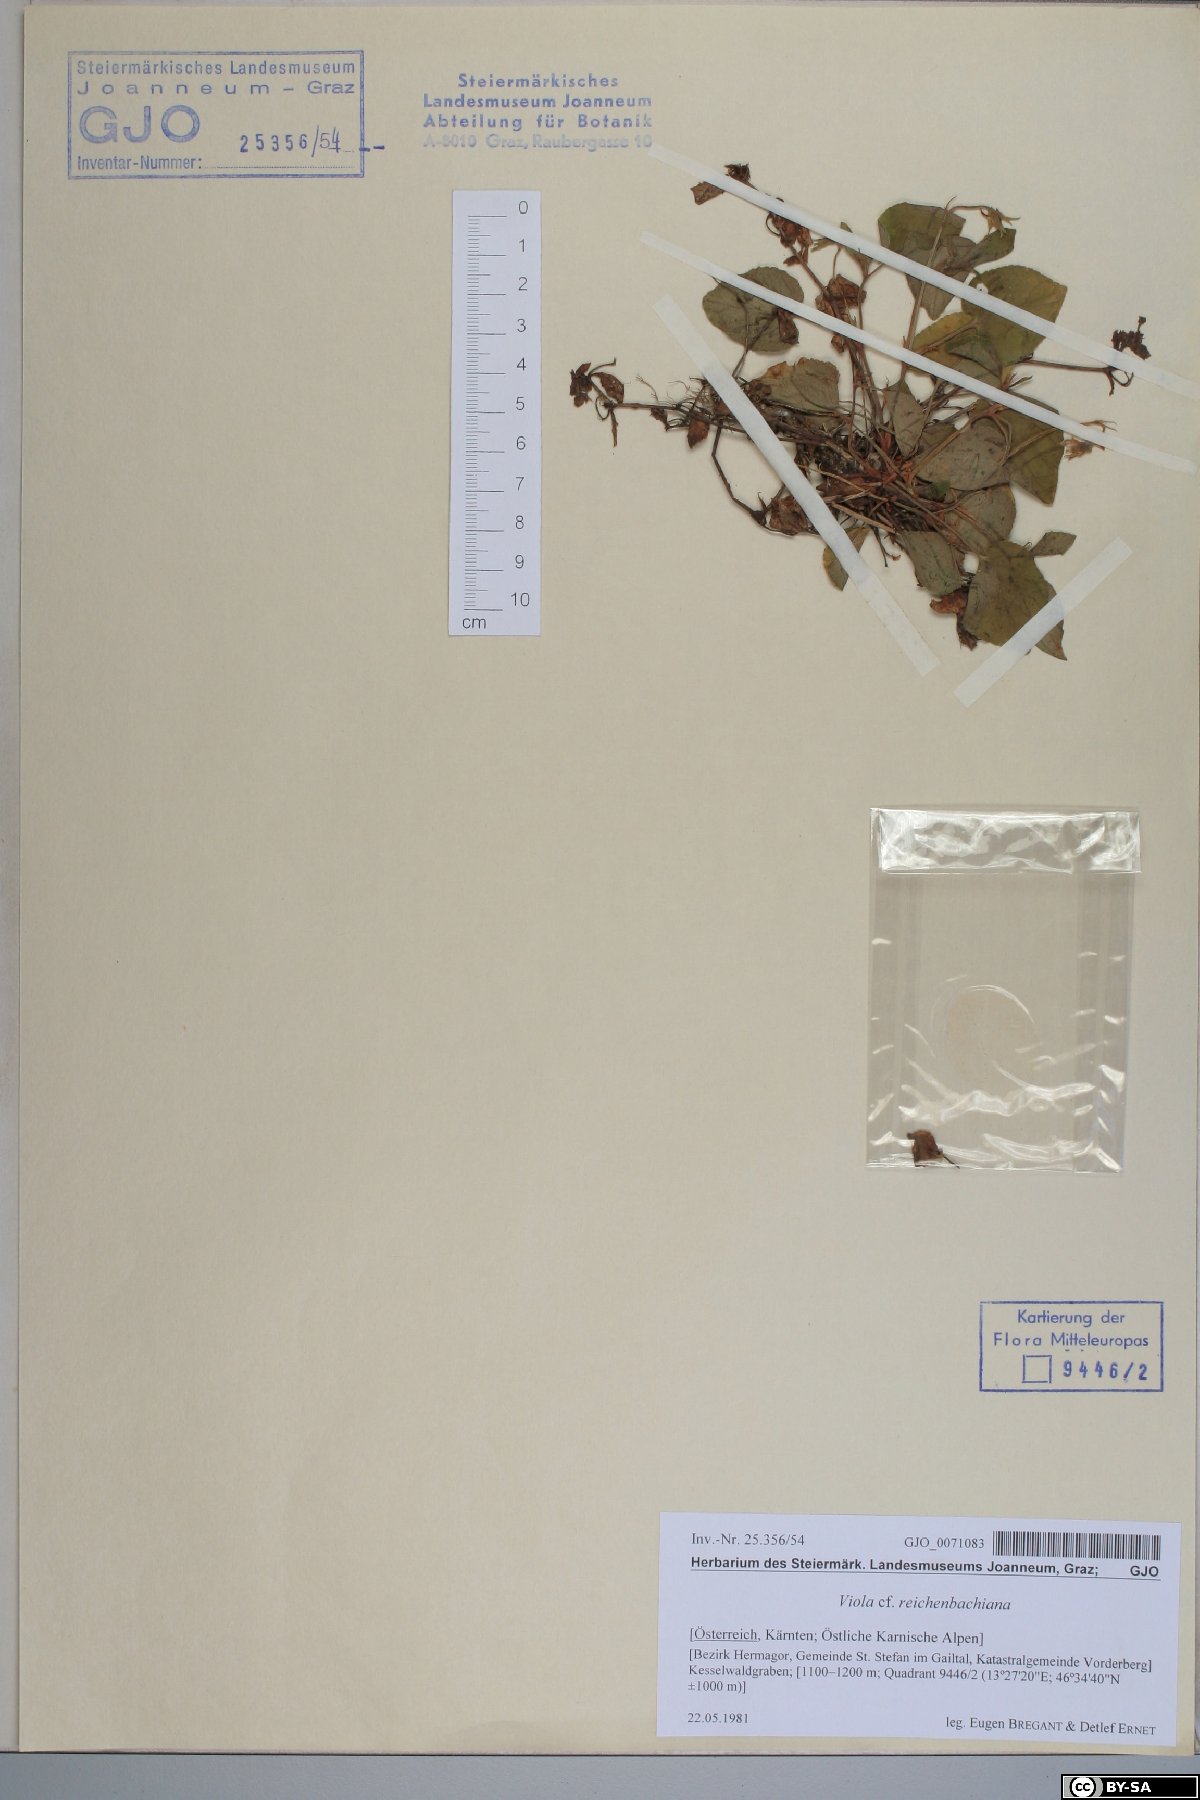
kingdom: Plantae
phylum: Tracheophyta
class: Magnoliopsida
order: Malpighiales
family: Violaceae
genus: Viola
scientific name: Viola reichenbachiana
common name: Early dog-violet
